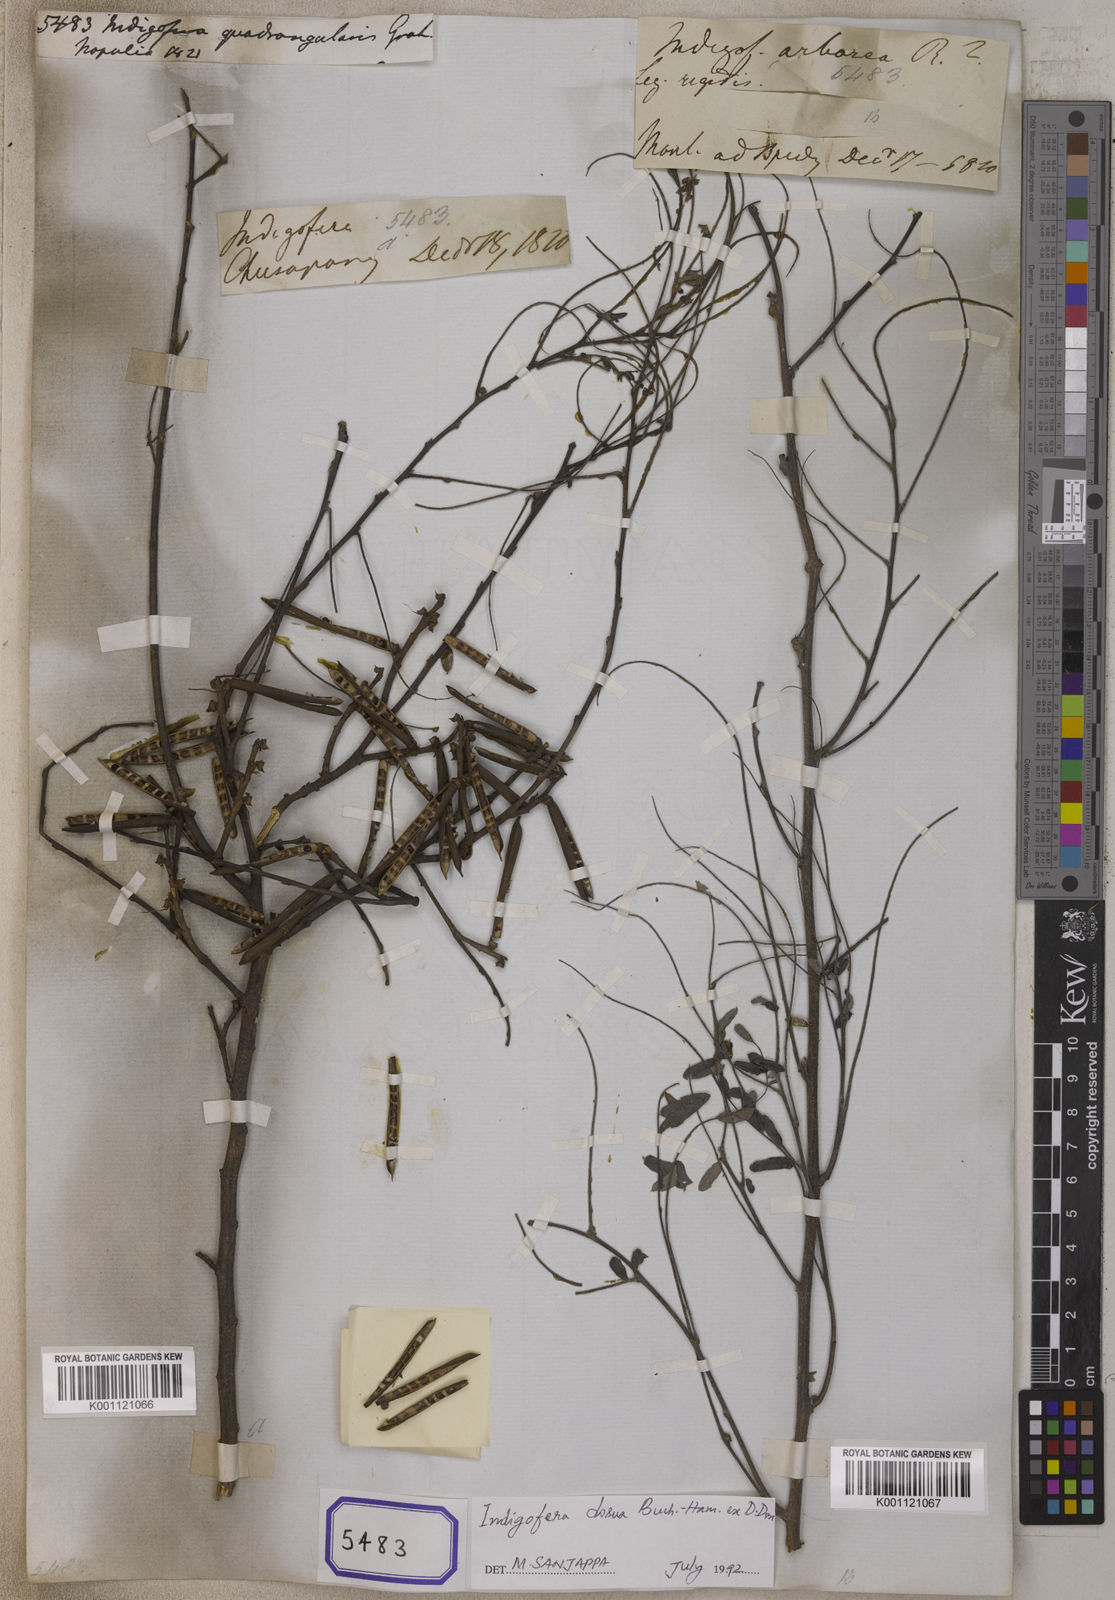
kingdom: Plantae
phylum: Tracheophyta
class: Magnoliopsida
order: Fabales
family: Fabaceae
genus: Indigofera
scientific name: Indigofera heterantha
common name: Himalayan indigo
